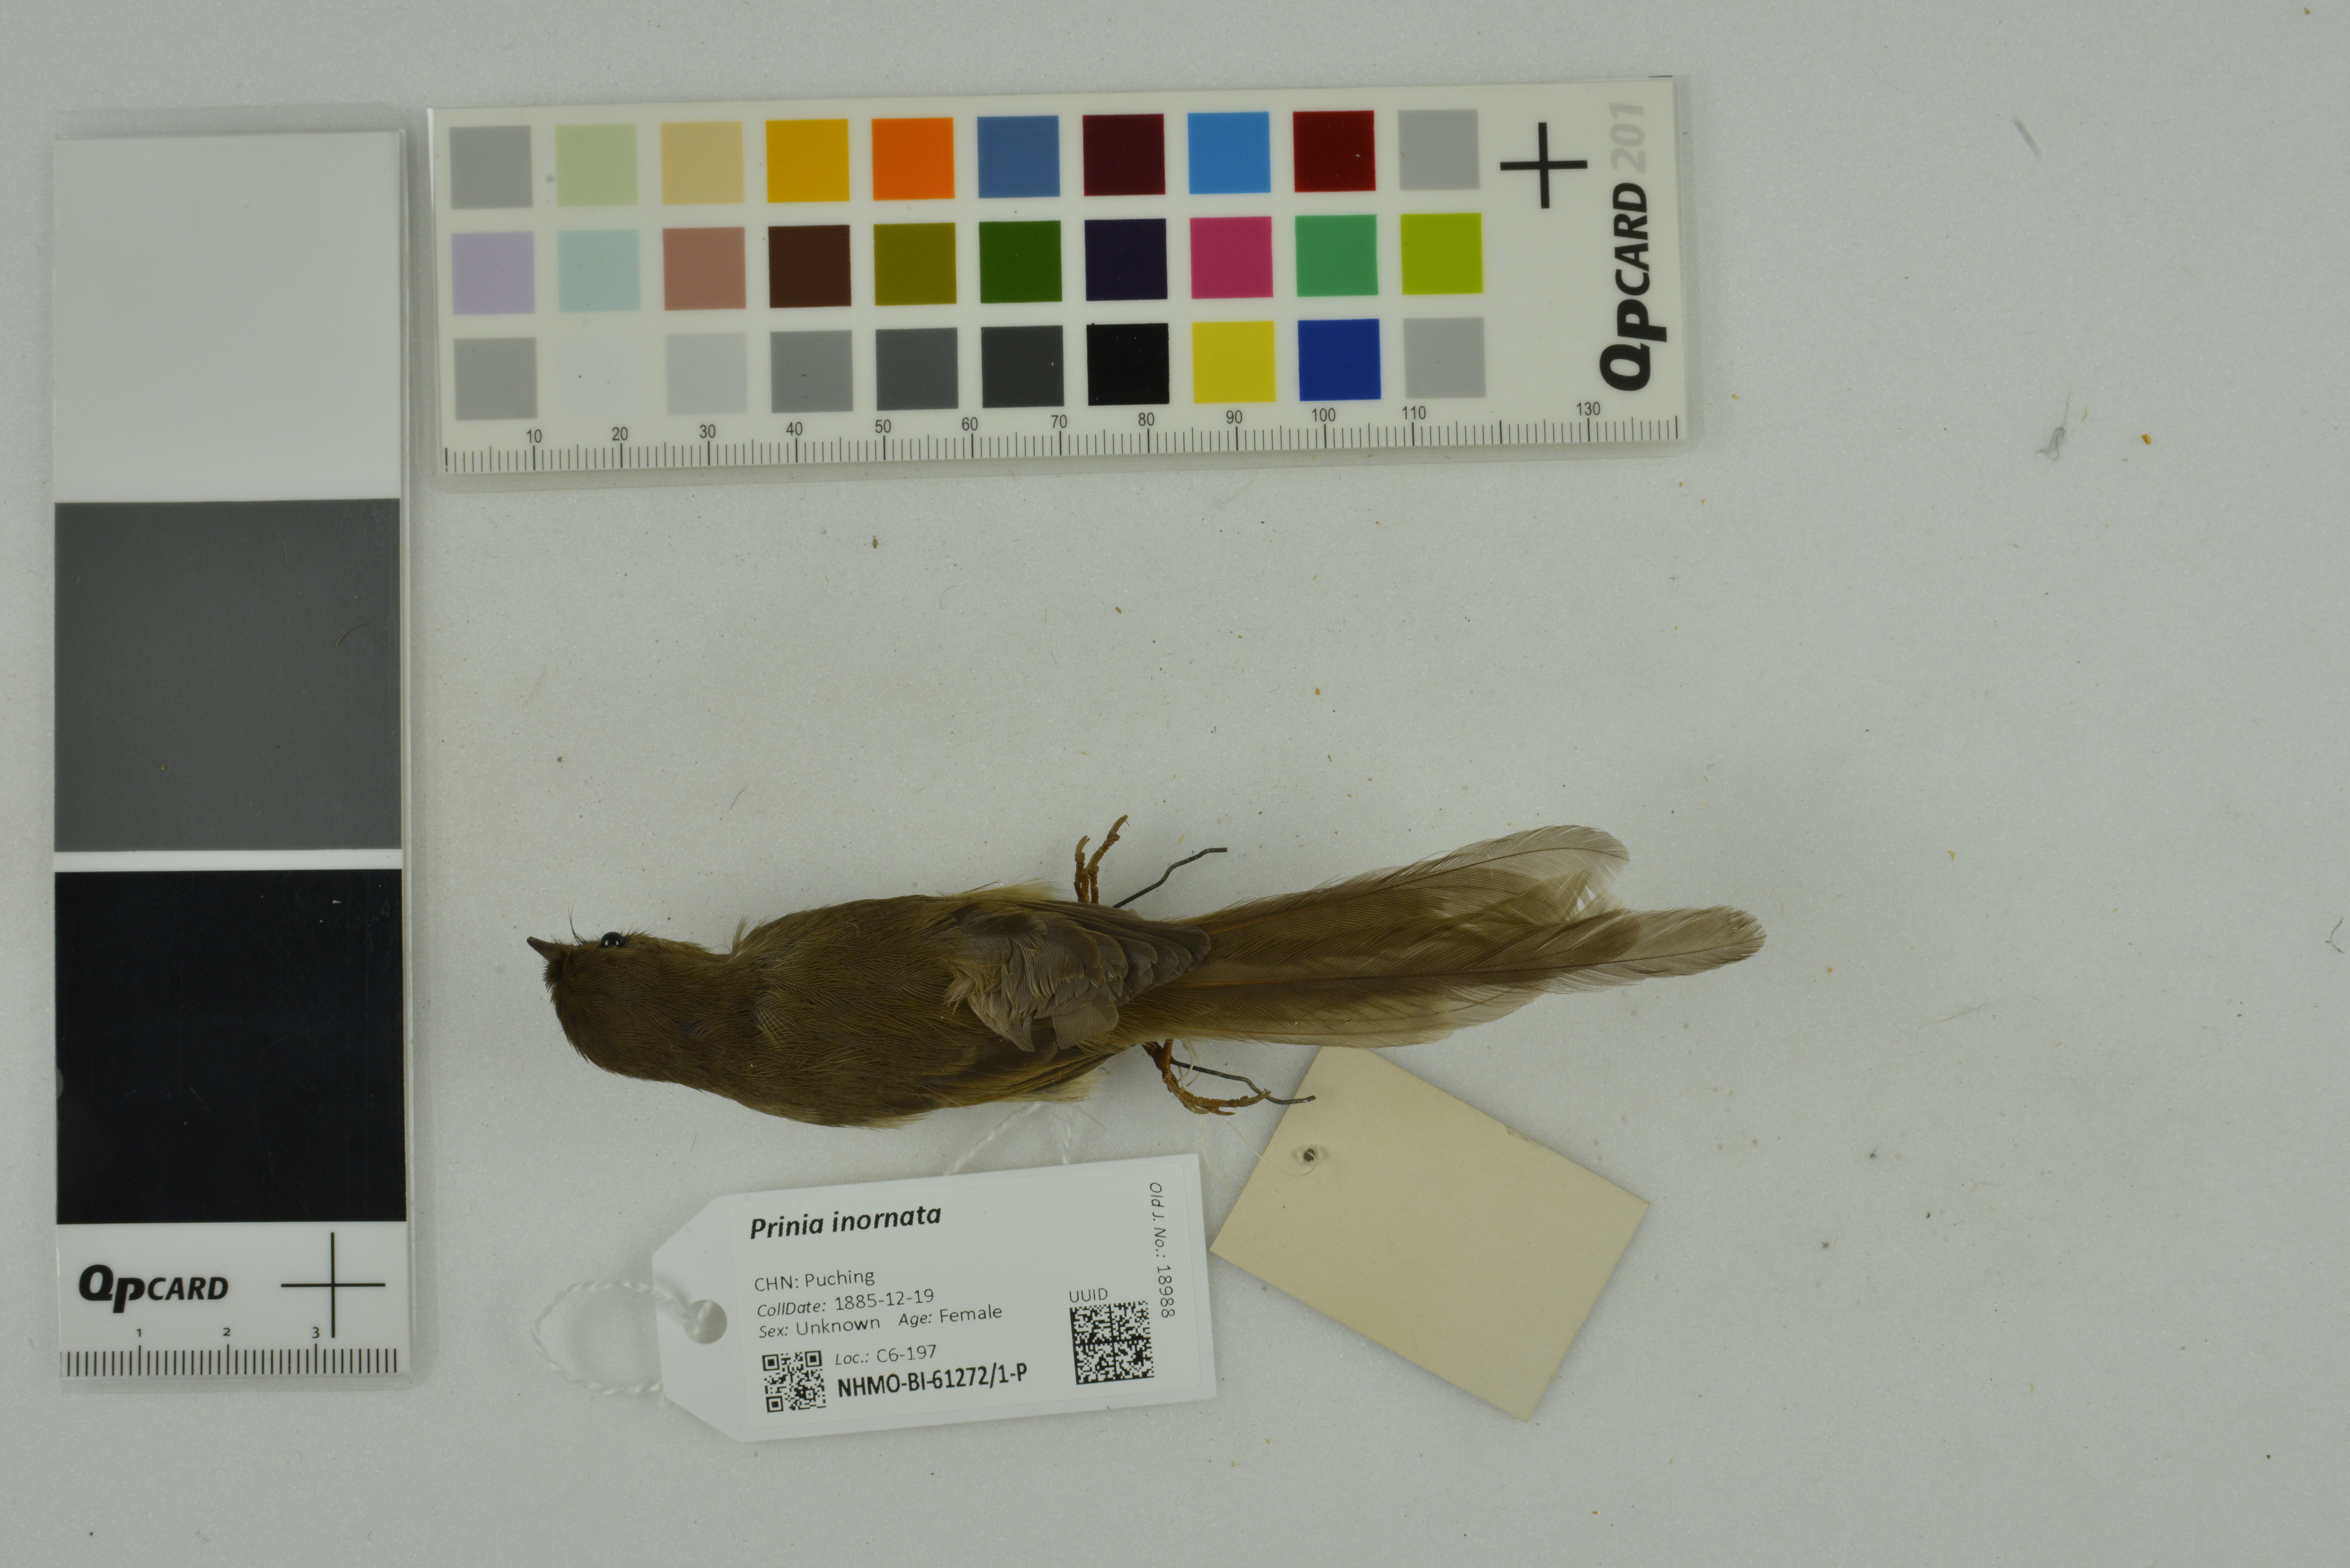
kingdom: Animalia
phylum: Chordata
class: Aves
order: Passeriformes
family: Cisticolidae
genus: Prinia
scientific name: Prinia inornata
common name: Plain prinia
